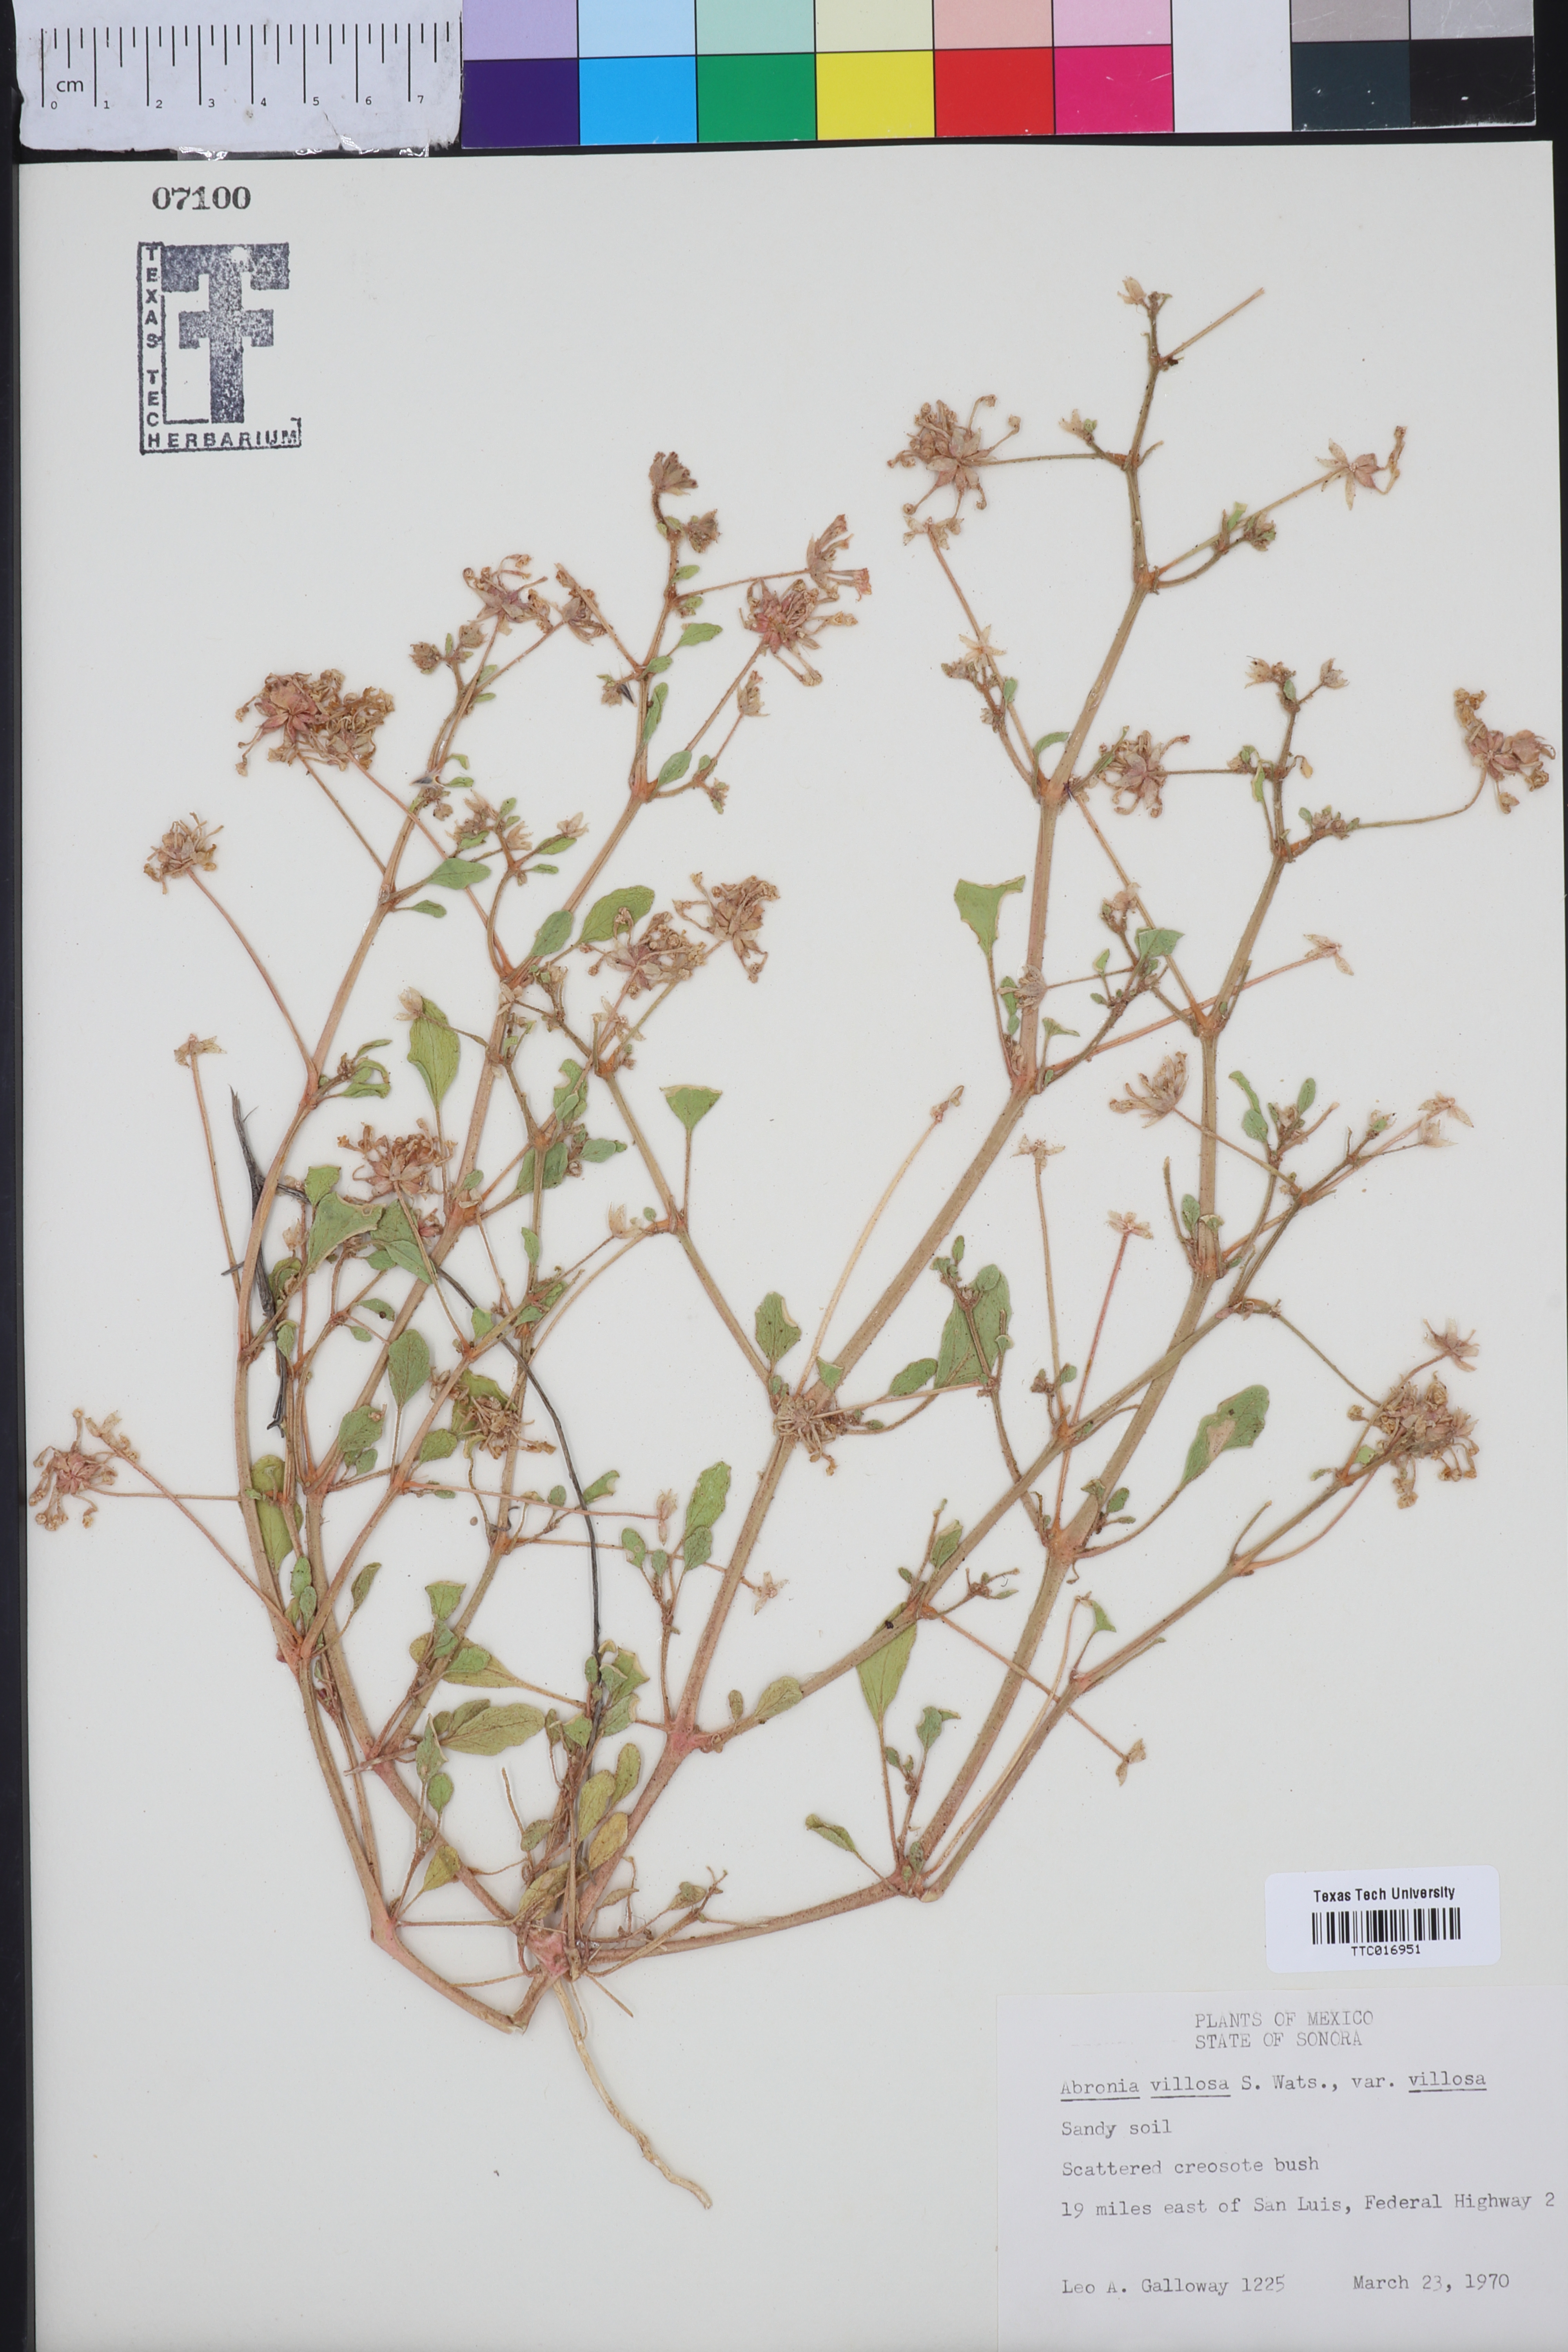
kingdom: Plantae
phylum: Tracheophyta
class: Magnoliopsida
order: Caryophyllales
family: Nyctaginaceae
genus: Abronia
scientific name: Abronia villosa
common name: Desert sand-verbena
